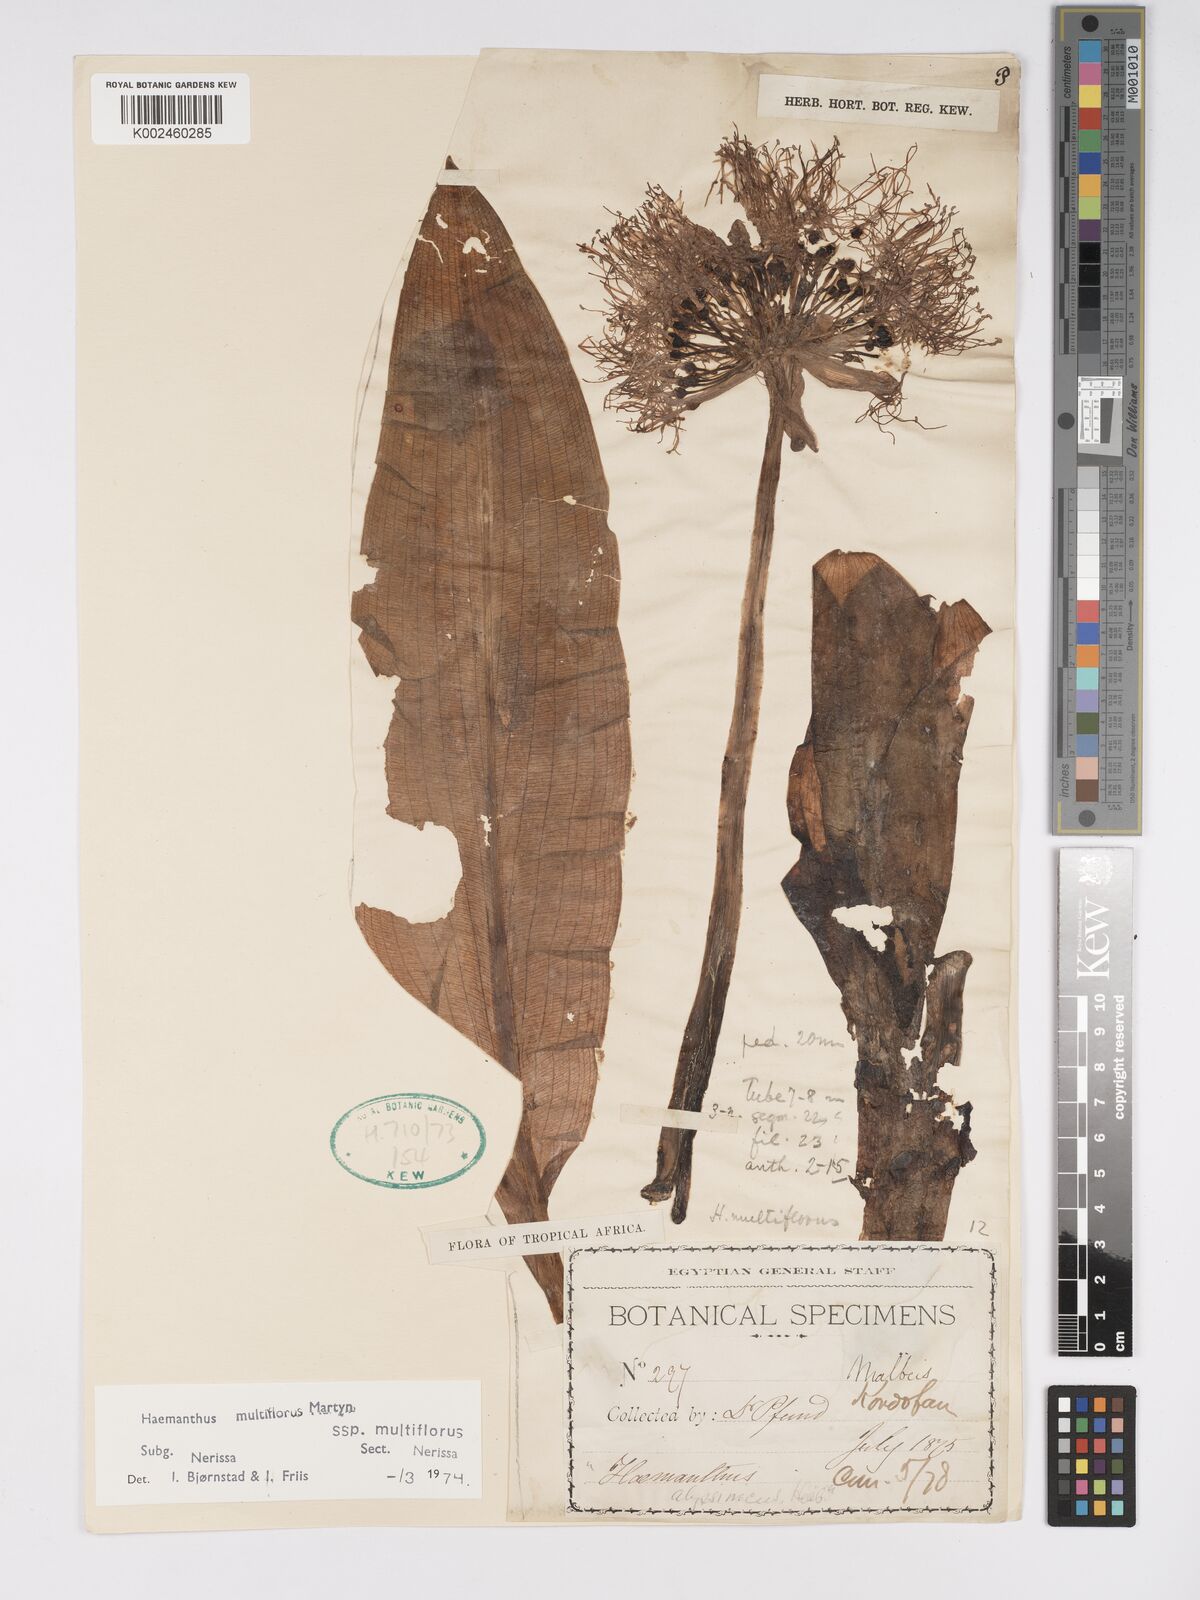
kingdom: Plantae
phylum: Tracheophyta
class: Liliopsida
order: Asparagales
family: Amaryllidaceae
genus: Scadoxus
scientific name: Scadoxus multiflorus
